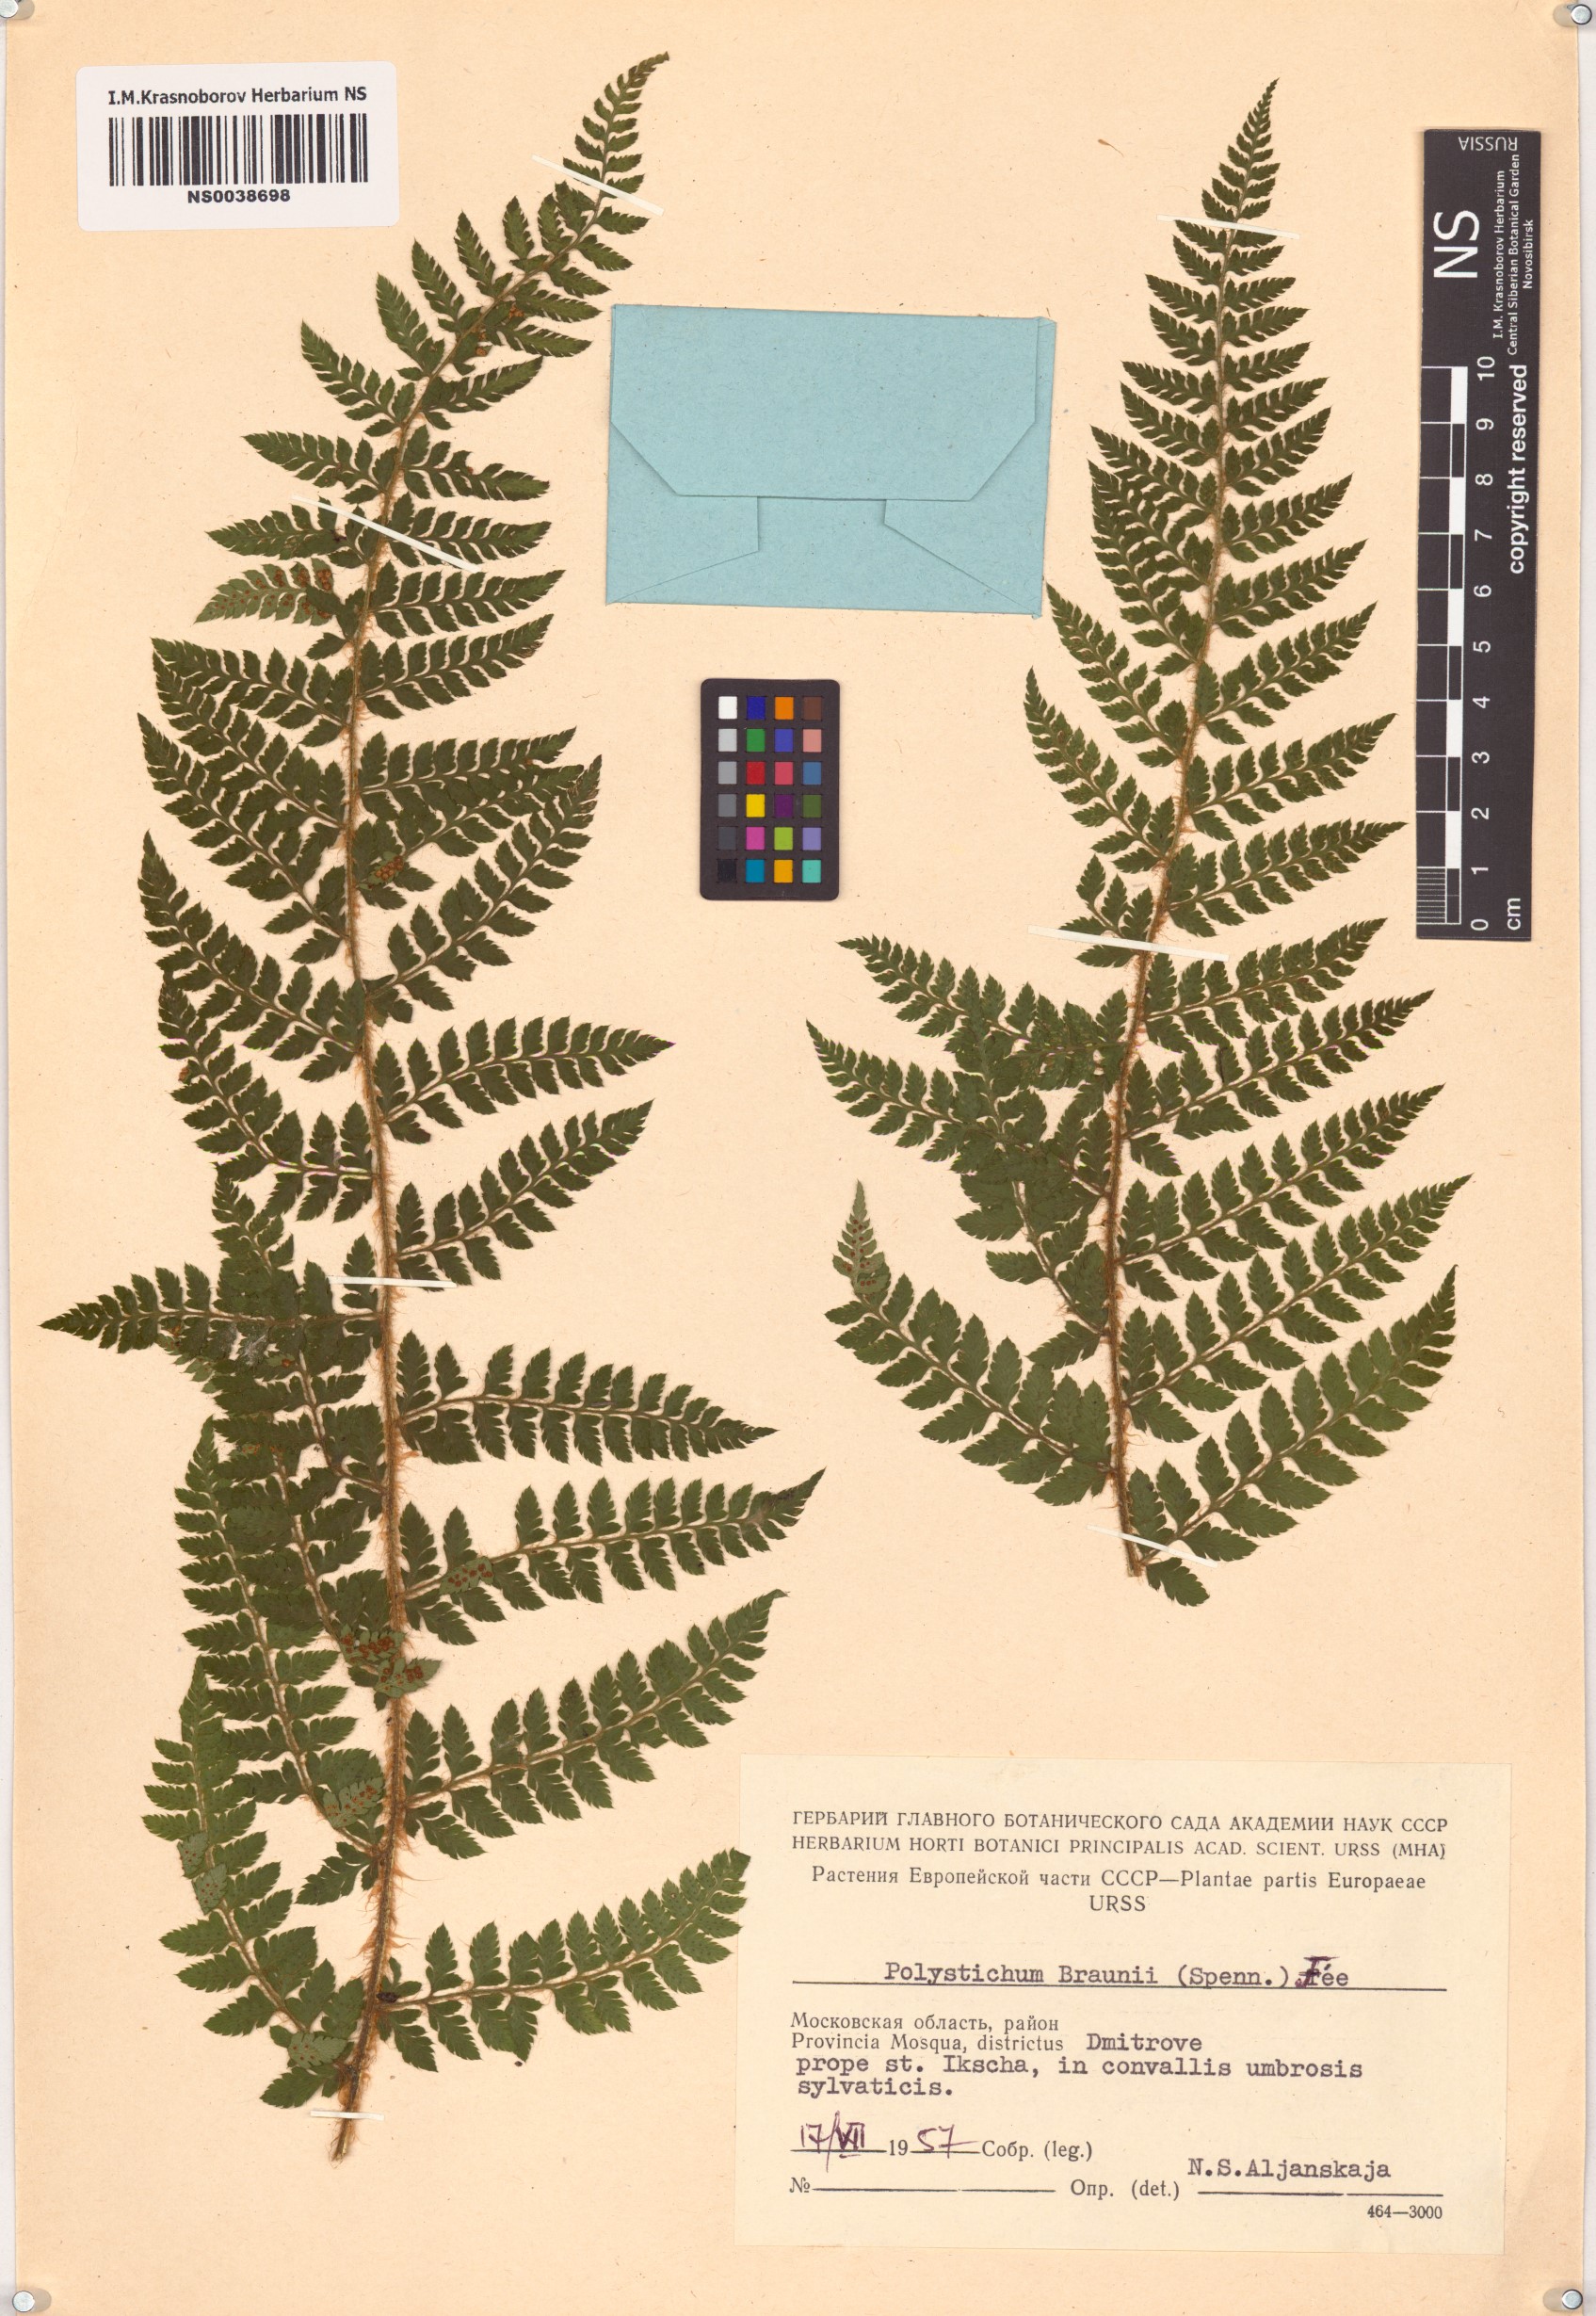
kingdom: Plantae
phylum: Tracheophyta
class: Polypodiopsida
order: Polypodiales
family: Dryopteridaceae
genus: Polystichum
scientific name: Polystichum braunii
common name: Braun's holly fern
